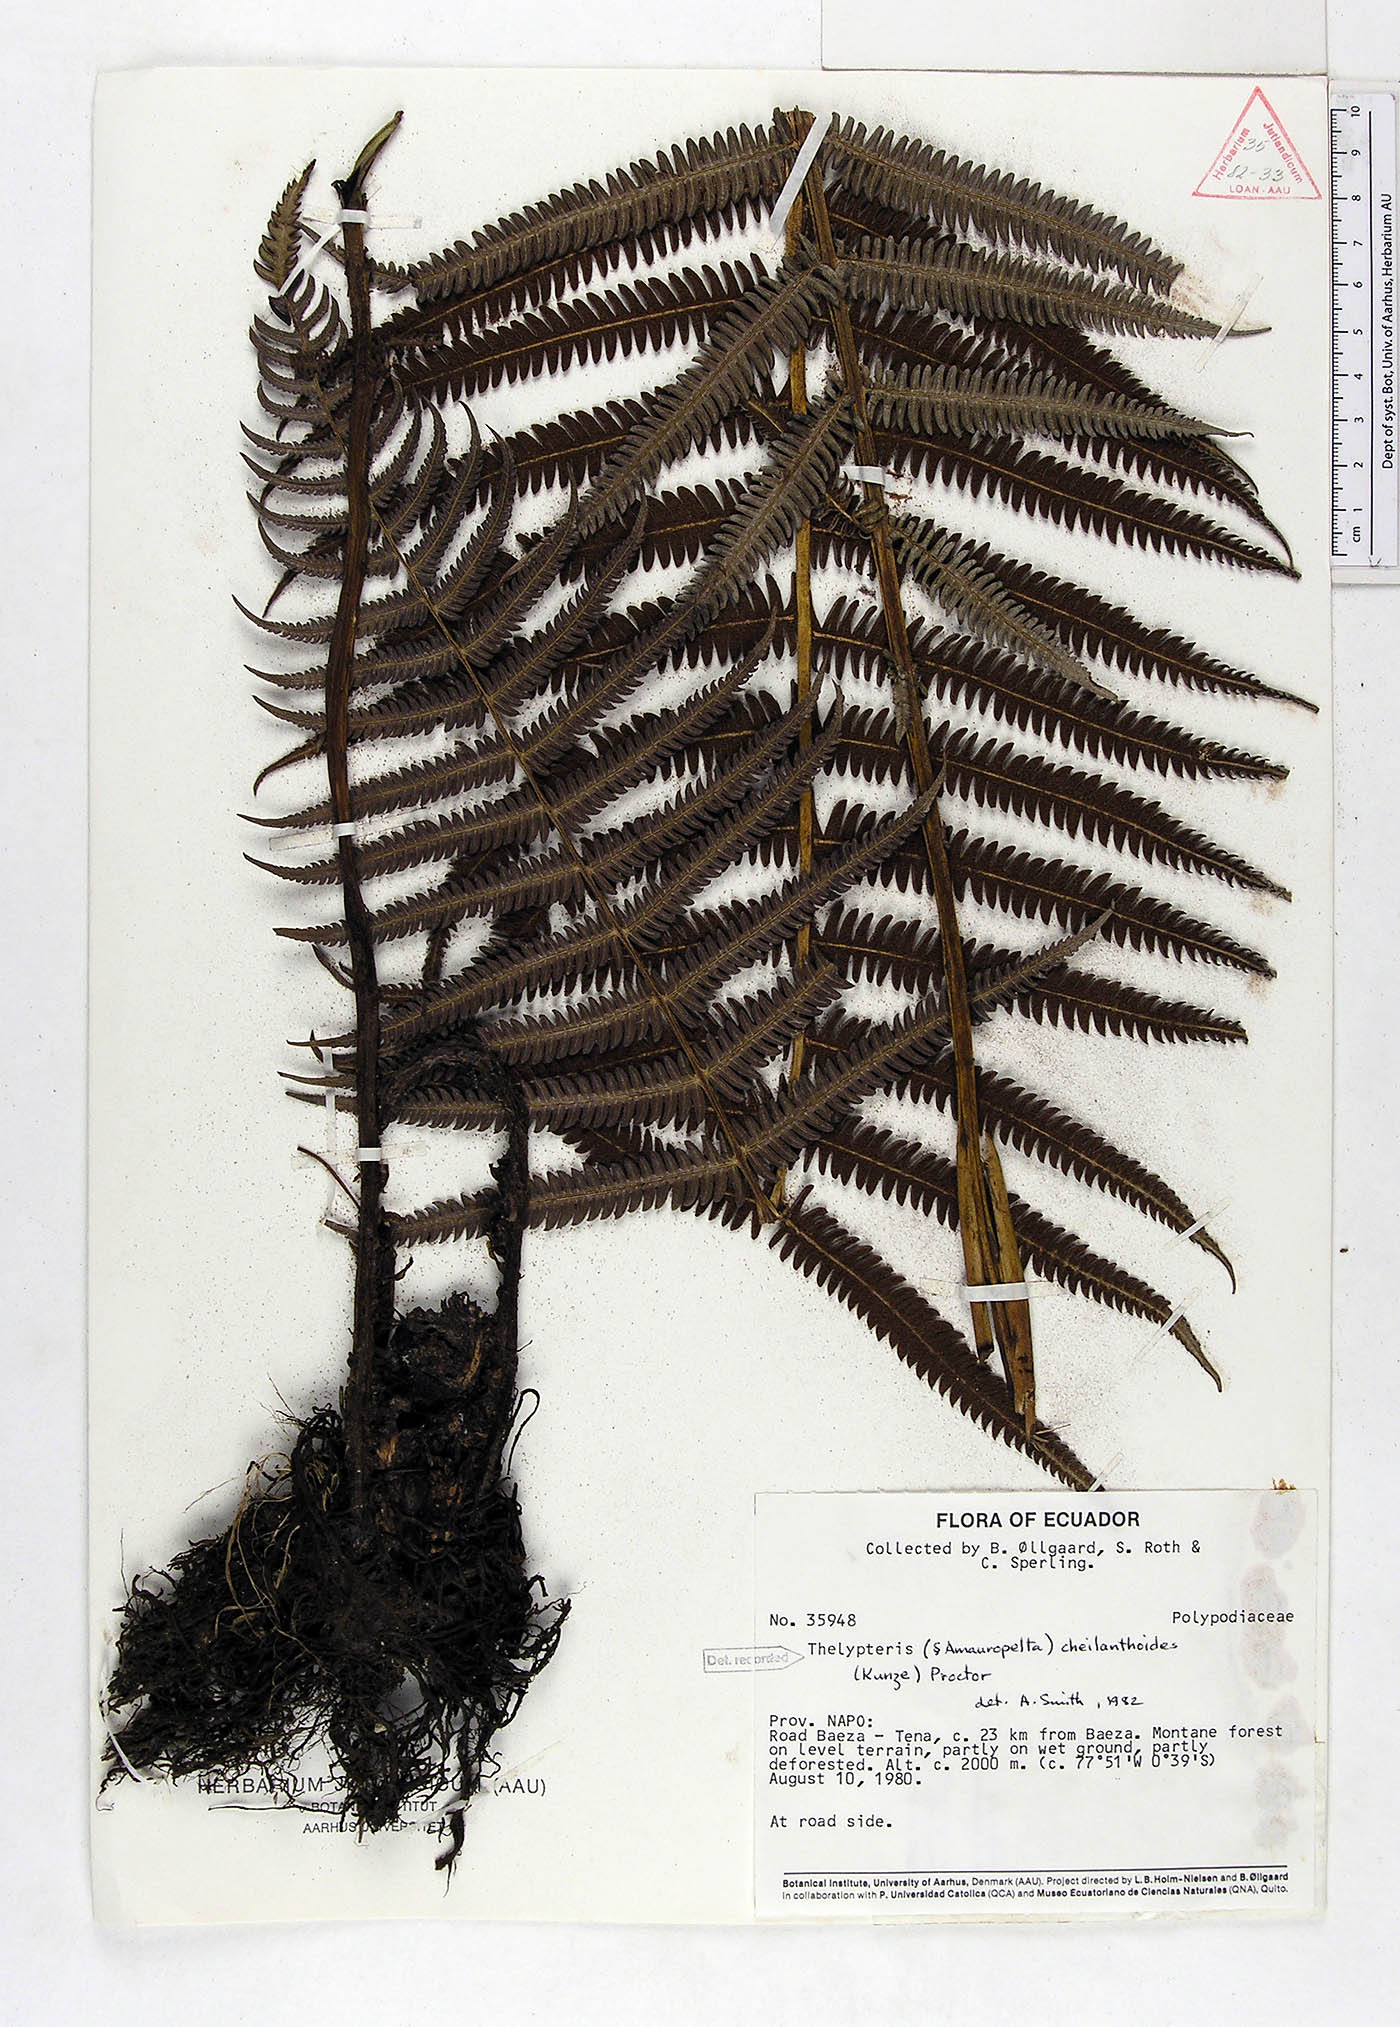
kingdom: Plantae
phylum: Tracheophyta
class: Polypodiopsida
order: Polypodiales
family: Thelypteridaceae
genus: Amauropelta
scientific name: Amauropelta cheilanthoides
